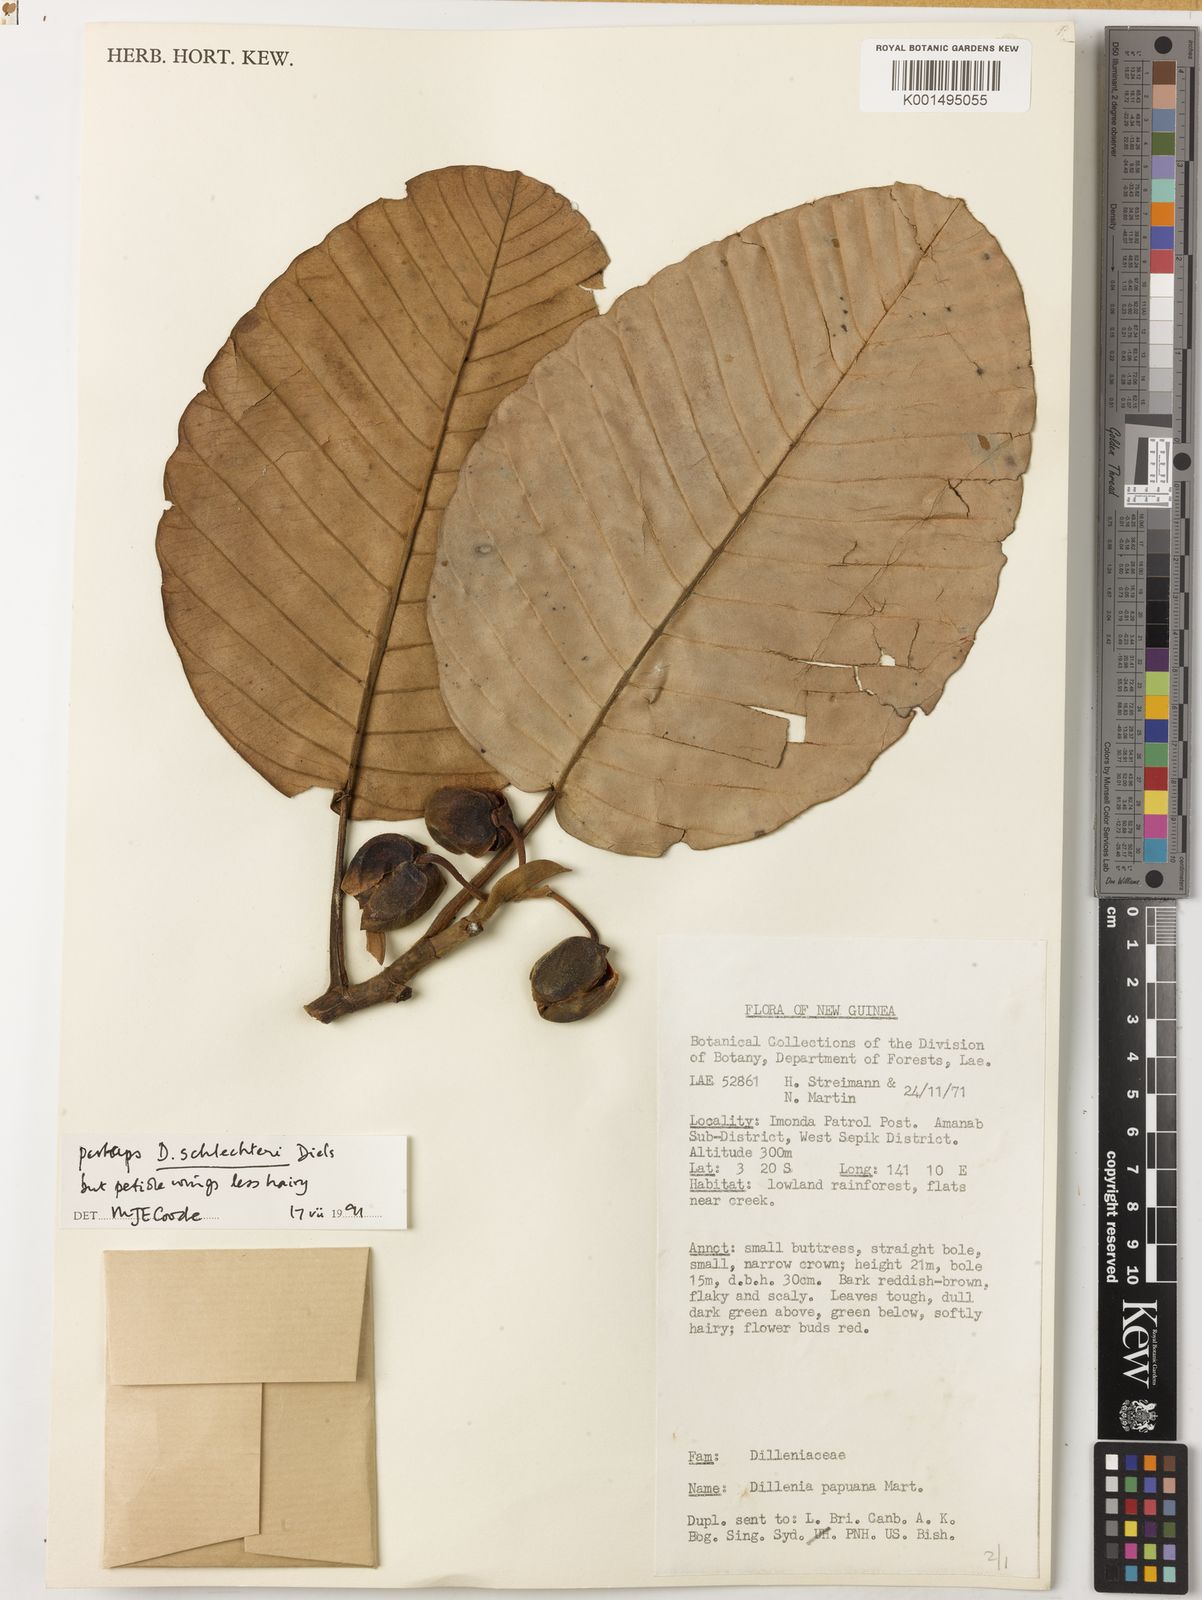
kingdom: Plantae
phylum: Tracheophyta
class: Magnoliopsida
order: Dilleniales
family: Dilleniaceae
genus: Dillenia
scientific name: Dillenia schlechteri
